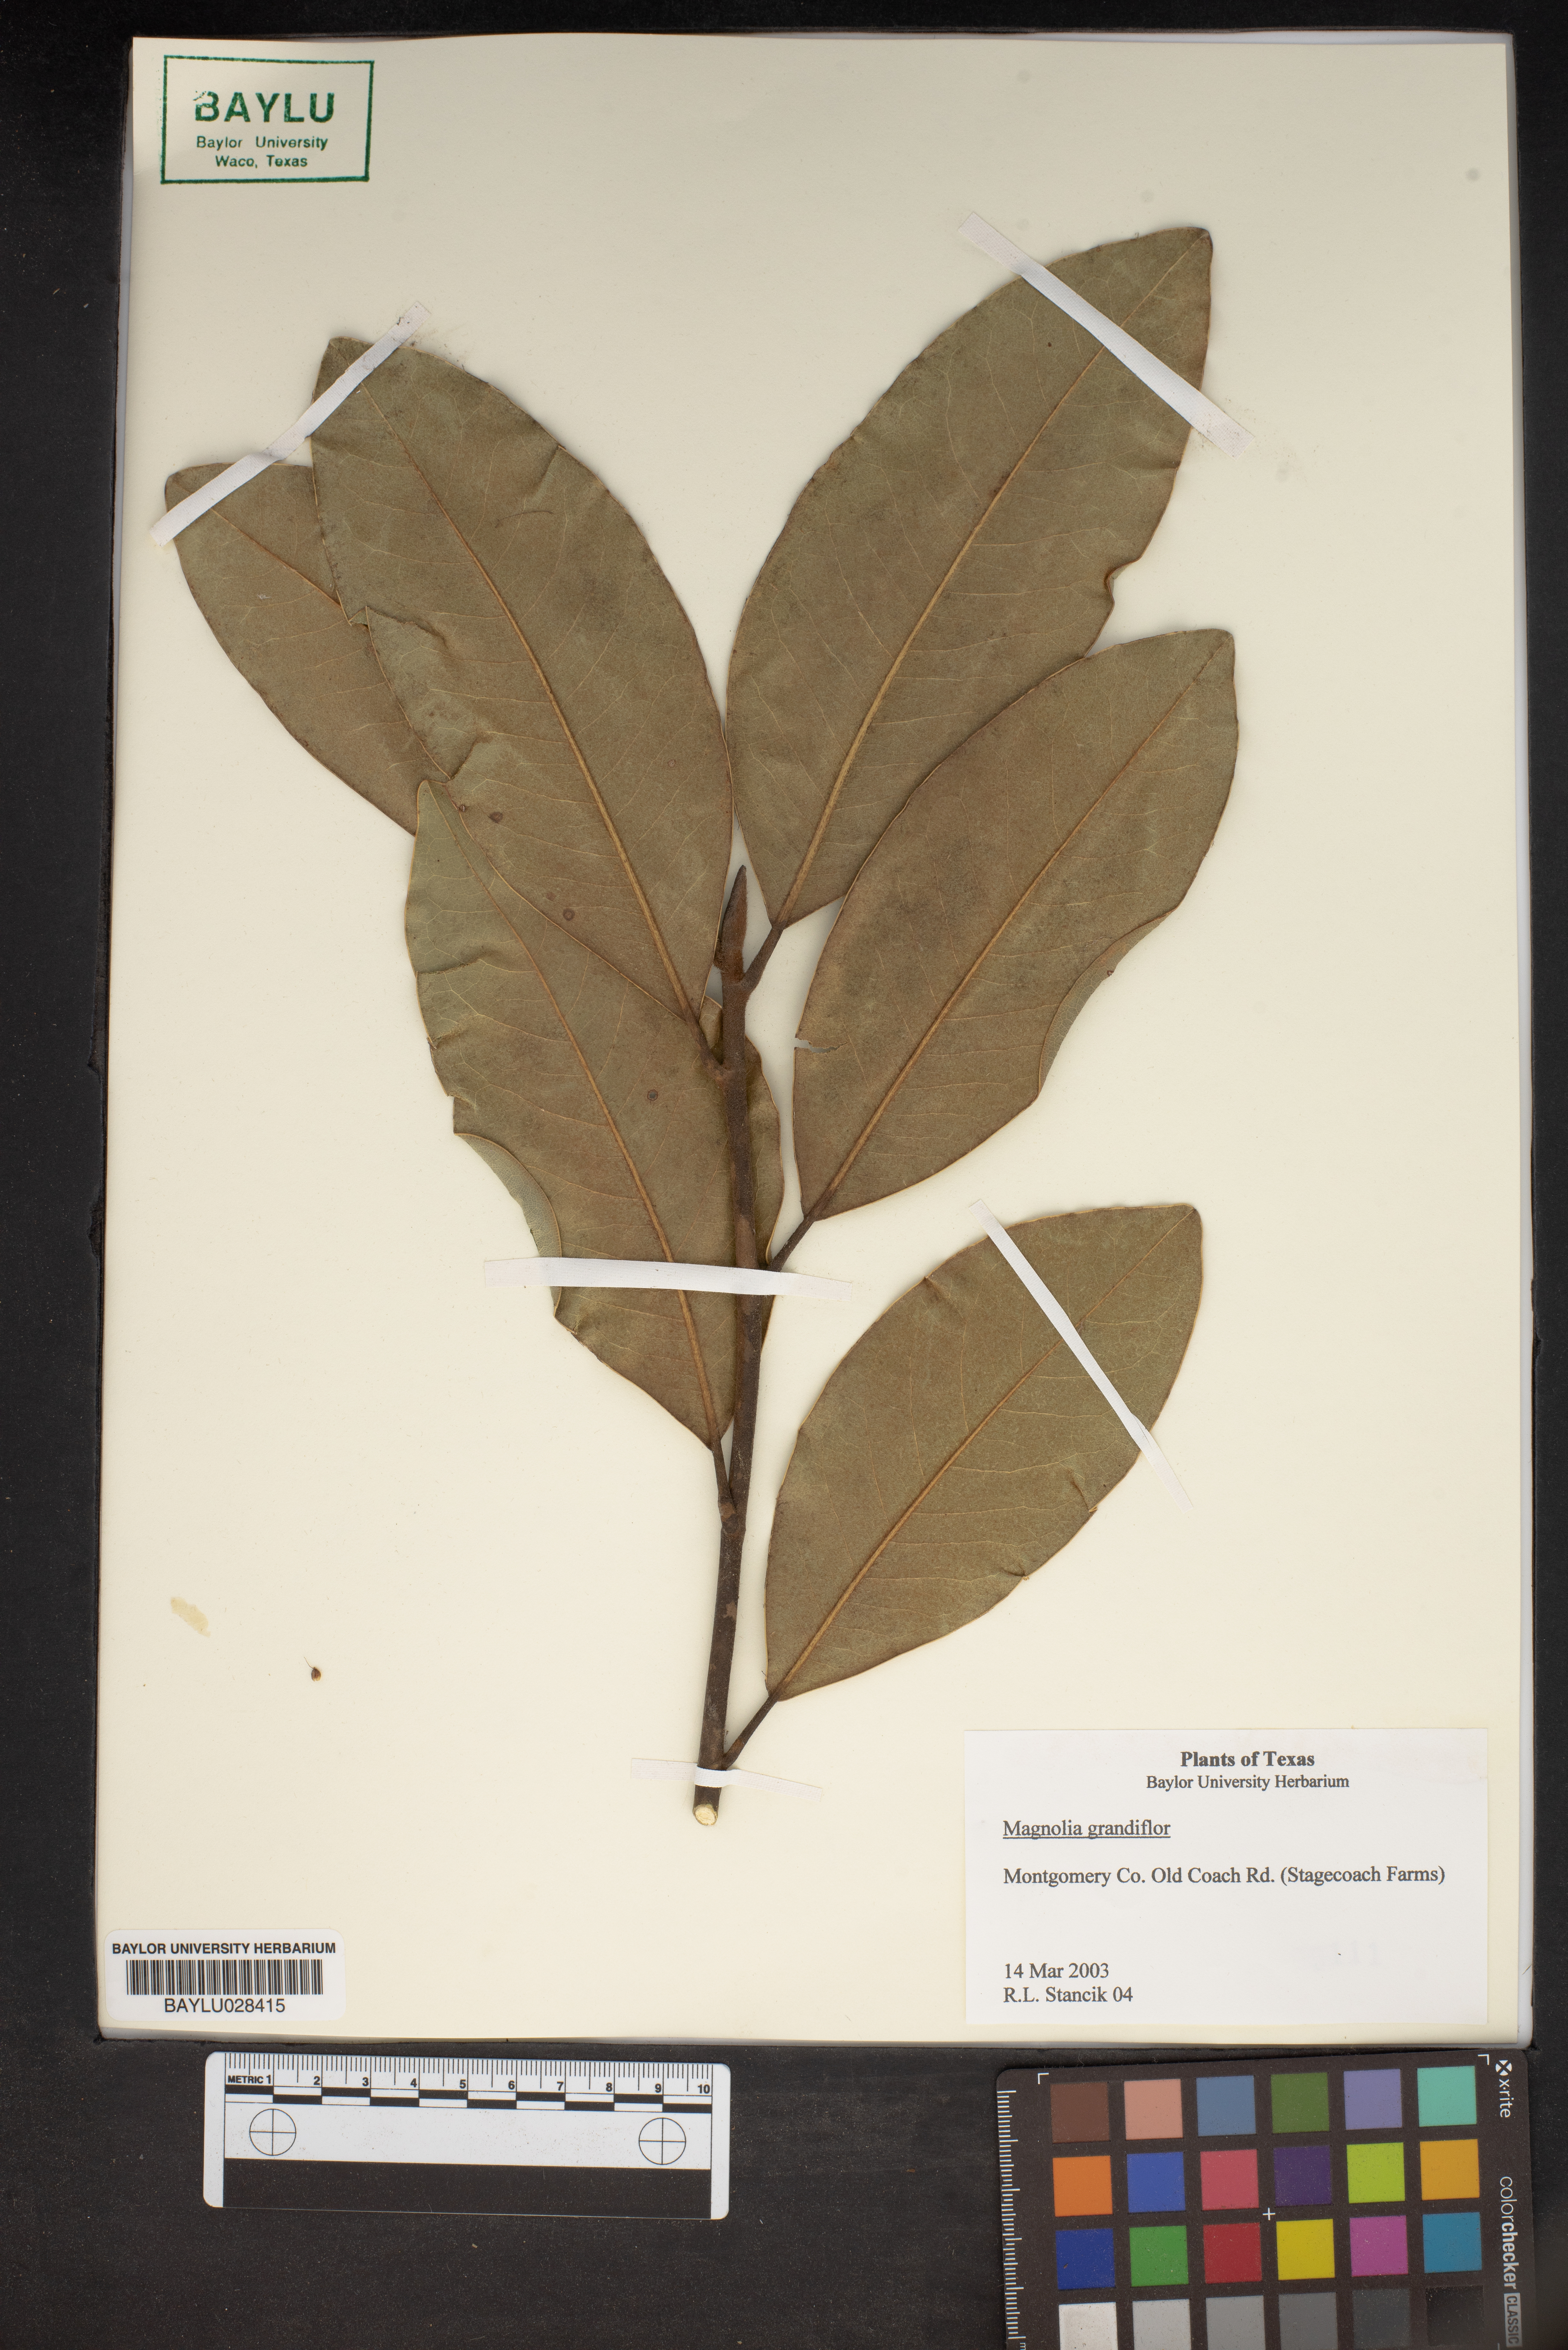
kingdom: Plantae
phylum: Tracheophyta
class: Magnoliopsida
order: Magnoliales
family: Magnoliaceae
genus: Magnolia
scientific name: Magnolia grandiflora
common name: Southern magnolia
